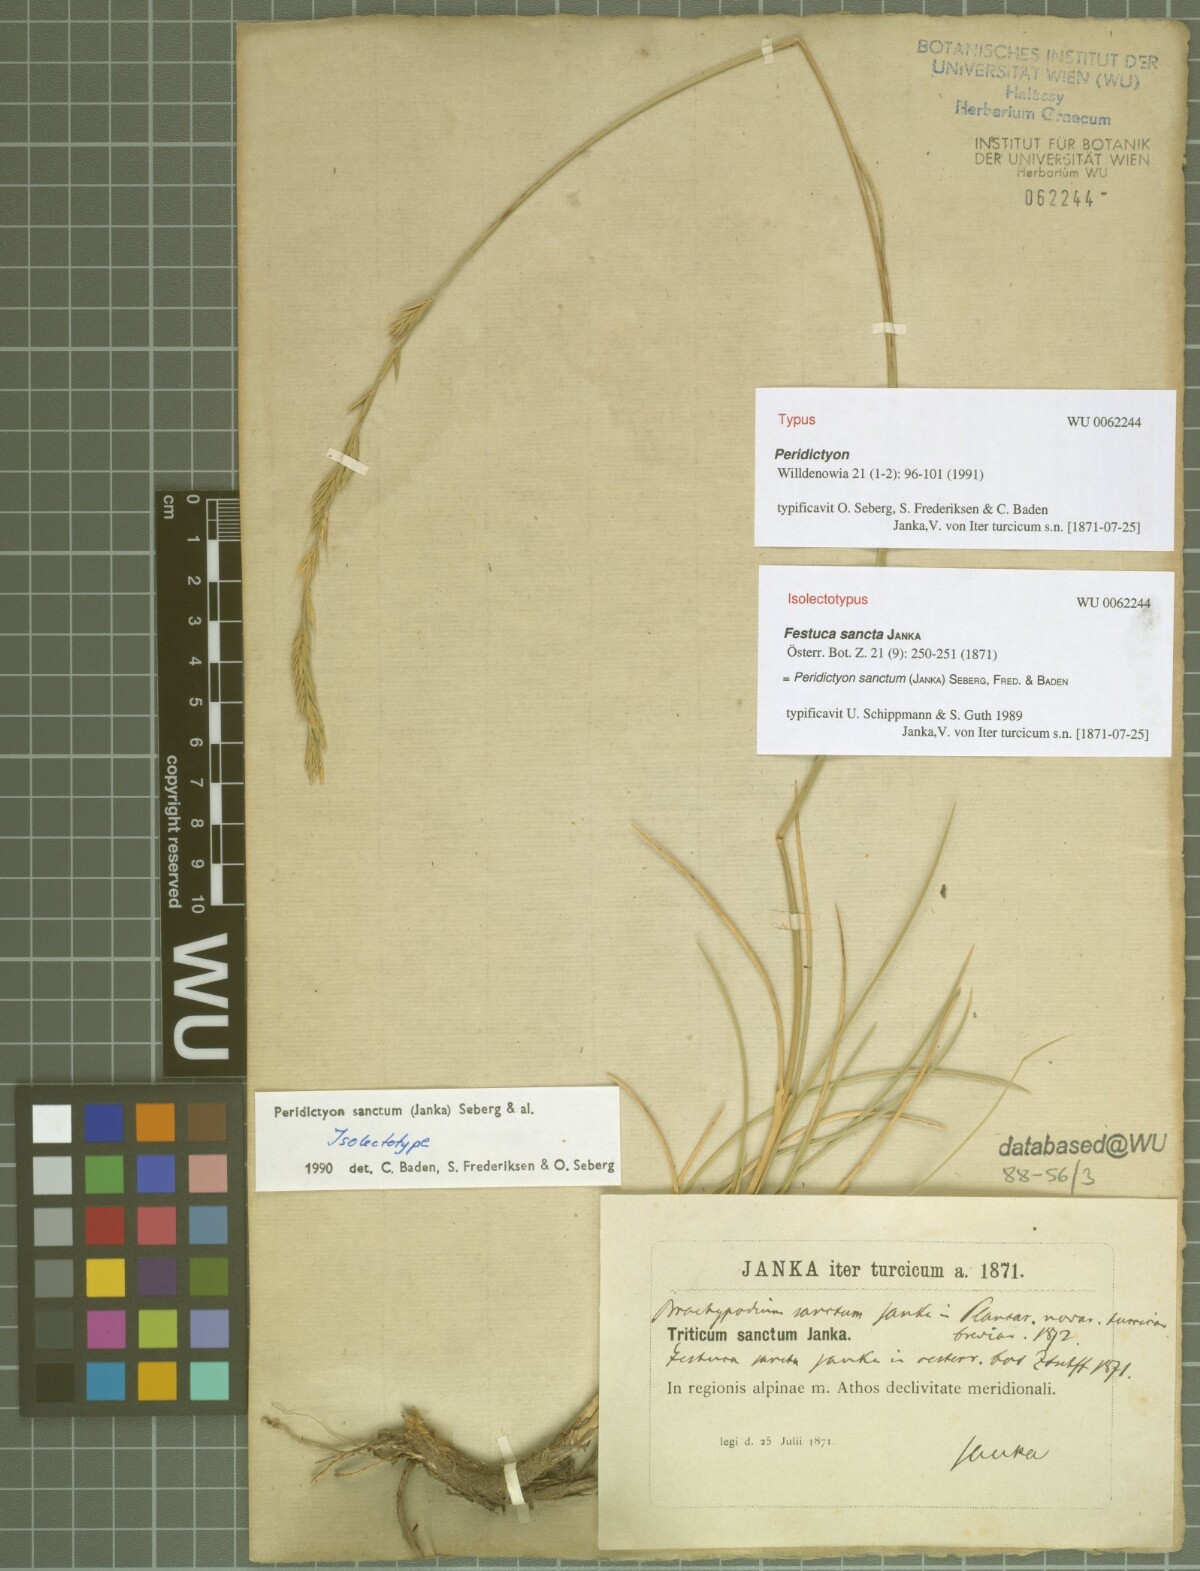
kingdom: Plantae
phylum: Tracheophyta
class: Liliopsida
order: Poales
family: Poaceae
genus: Peridictyon
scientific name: Peridictyon sanctum
